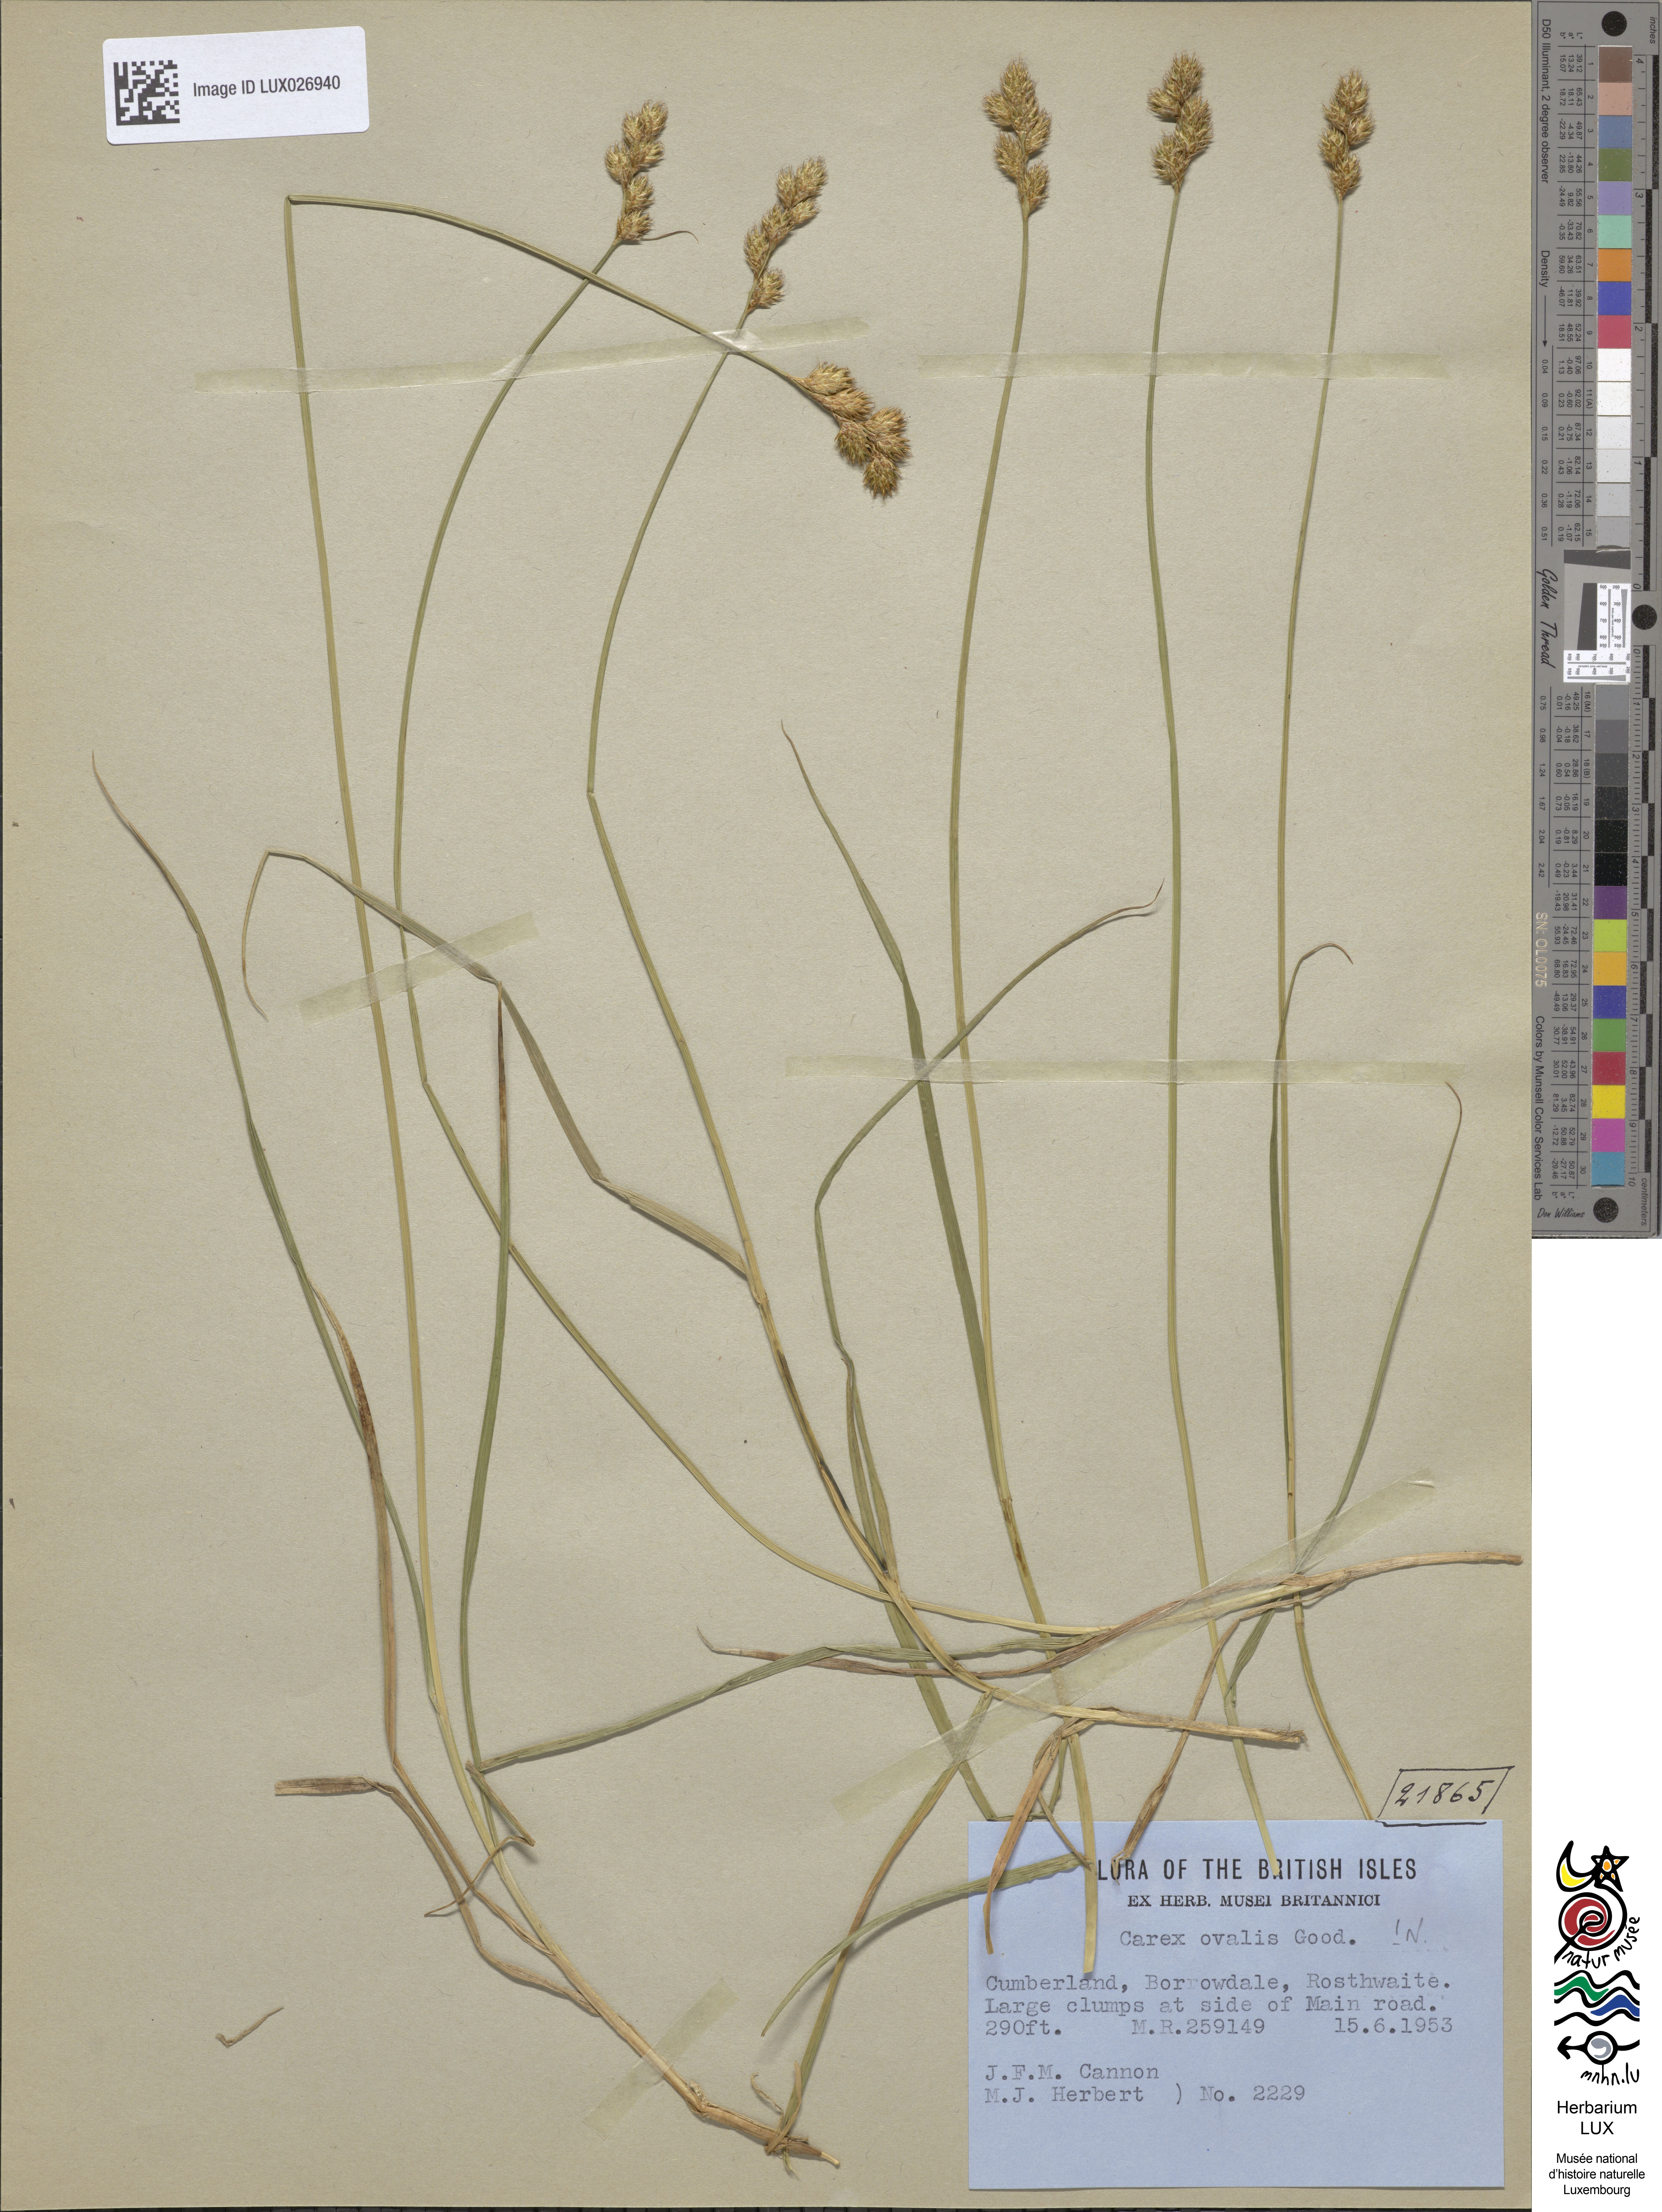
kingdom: Plantae
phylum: Tracheophyta
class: Liliopsida
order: Poales
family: Cyperaceae
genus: Carex
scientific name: Carex leporina
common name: Oval sedge
